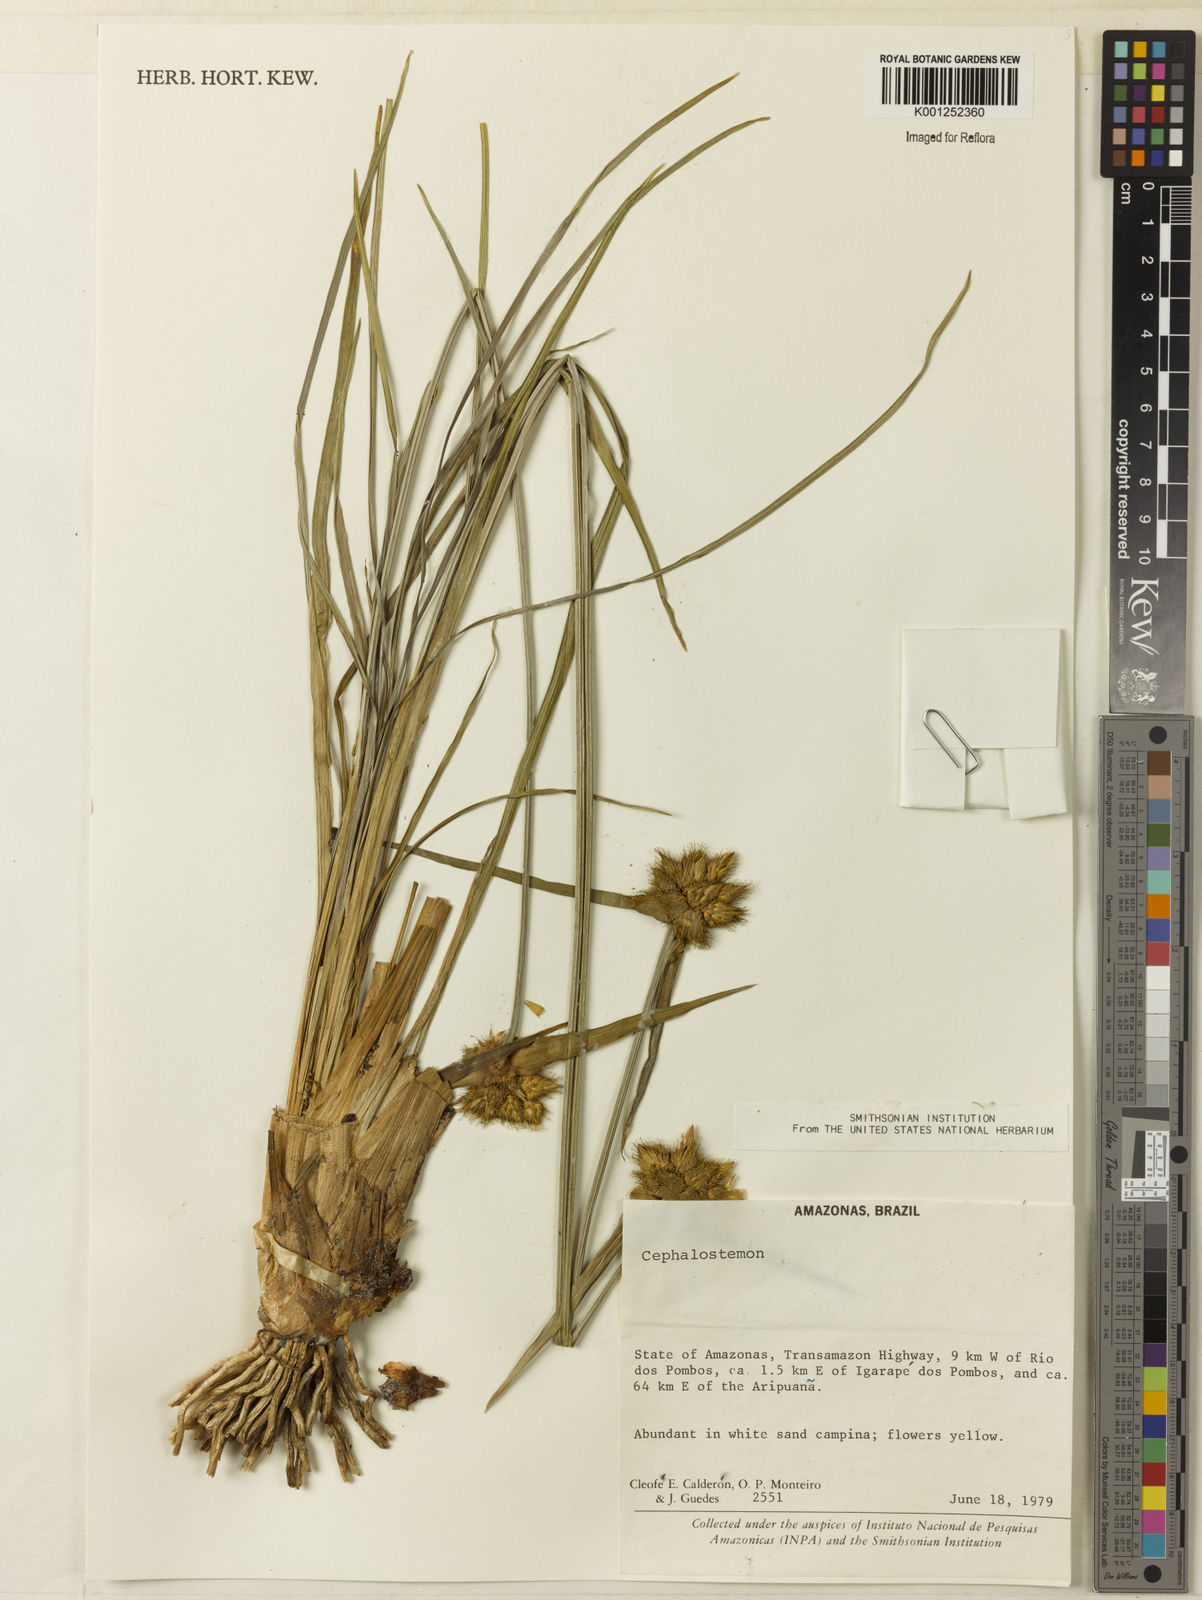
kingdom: Plantae
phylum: Tracheophyta
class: Liliopsida
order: Poales
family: Rapateaceae
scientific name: Rapateaceae
